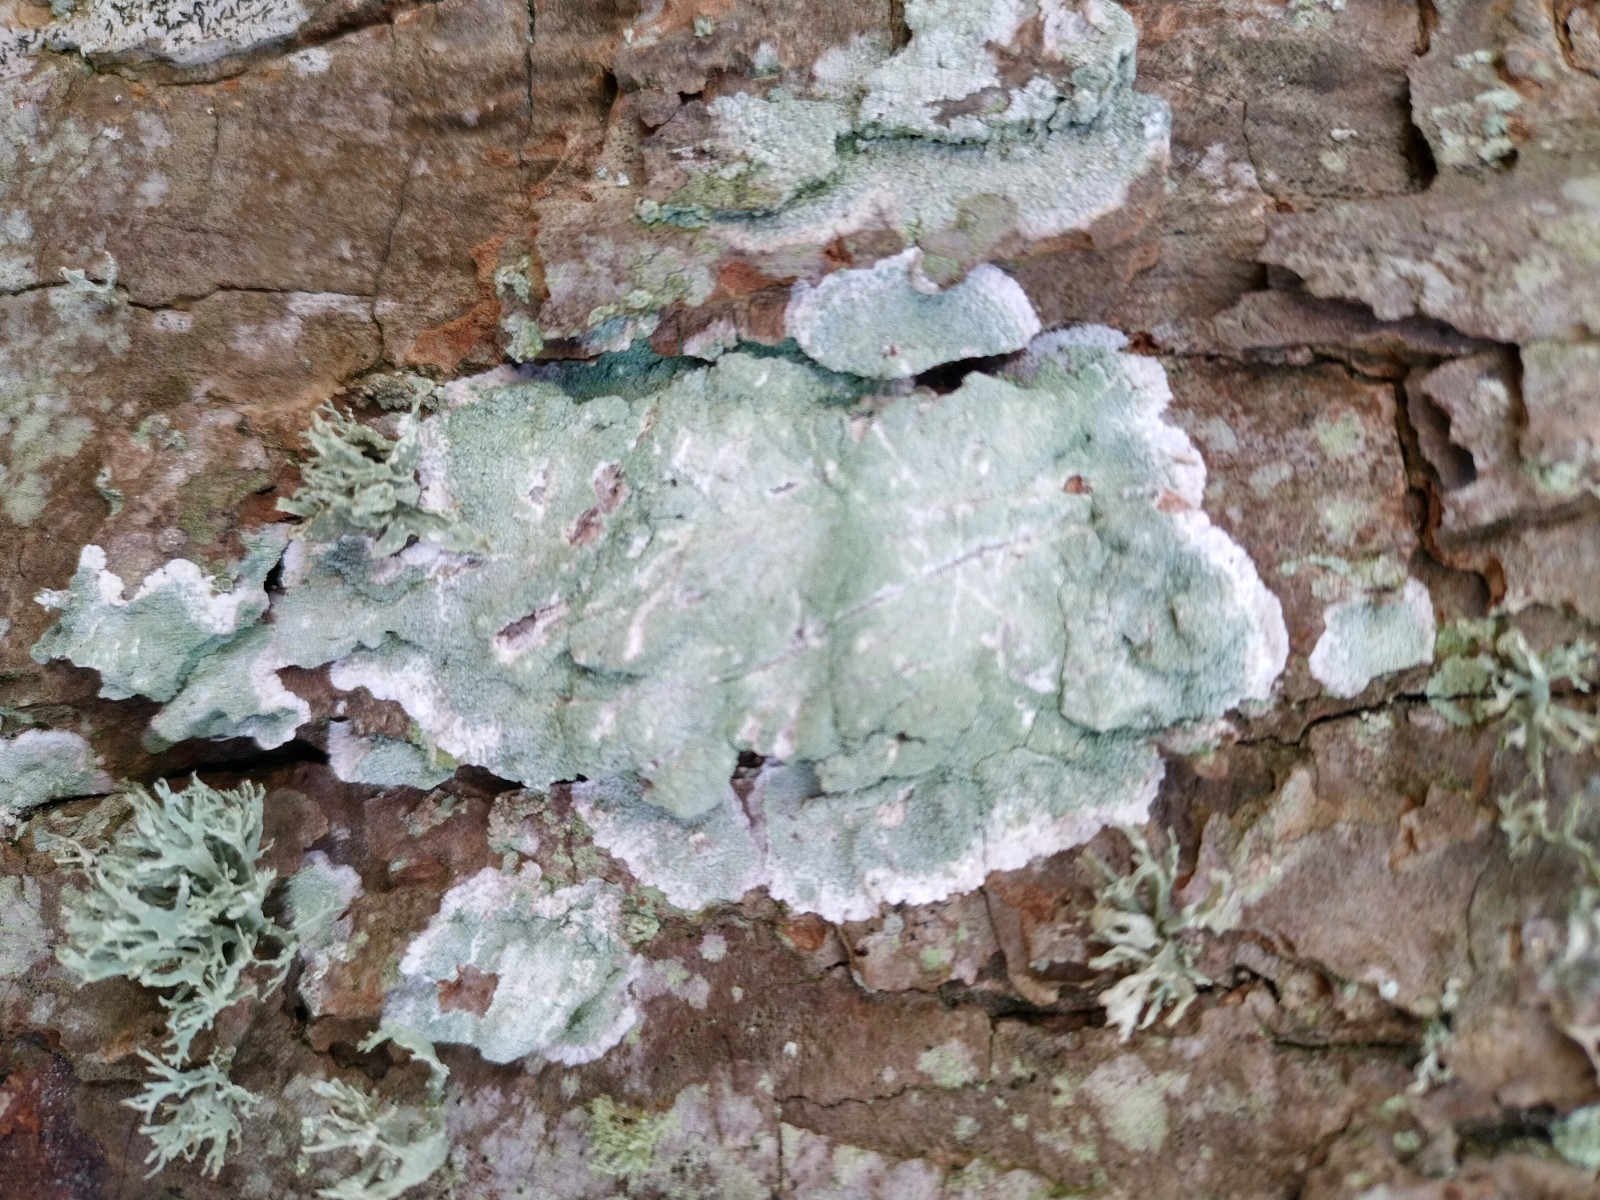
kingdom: Fungi
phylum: Ascomycota
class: Lecanoromycetes
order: Lecanorales
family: Haematommataceae
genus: Haematomma
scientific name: Haematomma ochroleucum
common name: gul trådkantlav
